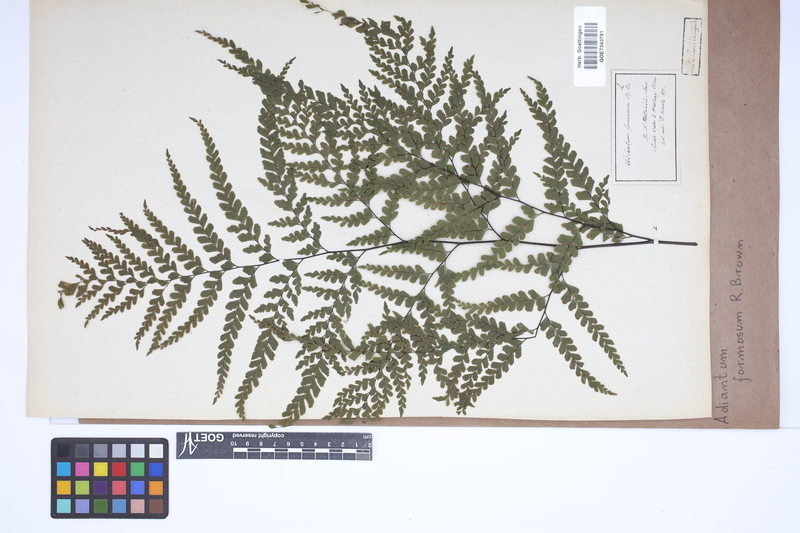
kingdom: Plantae
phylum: Tracheophyta
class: Polypodiopsida
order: Polypodiales
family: Pteridaceae
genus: Adiantum
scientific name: Adiantum formosum
